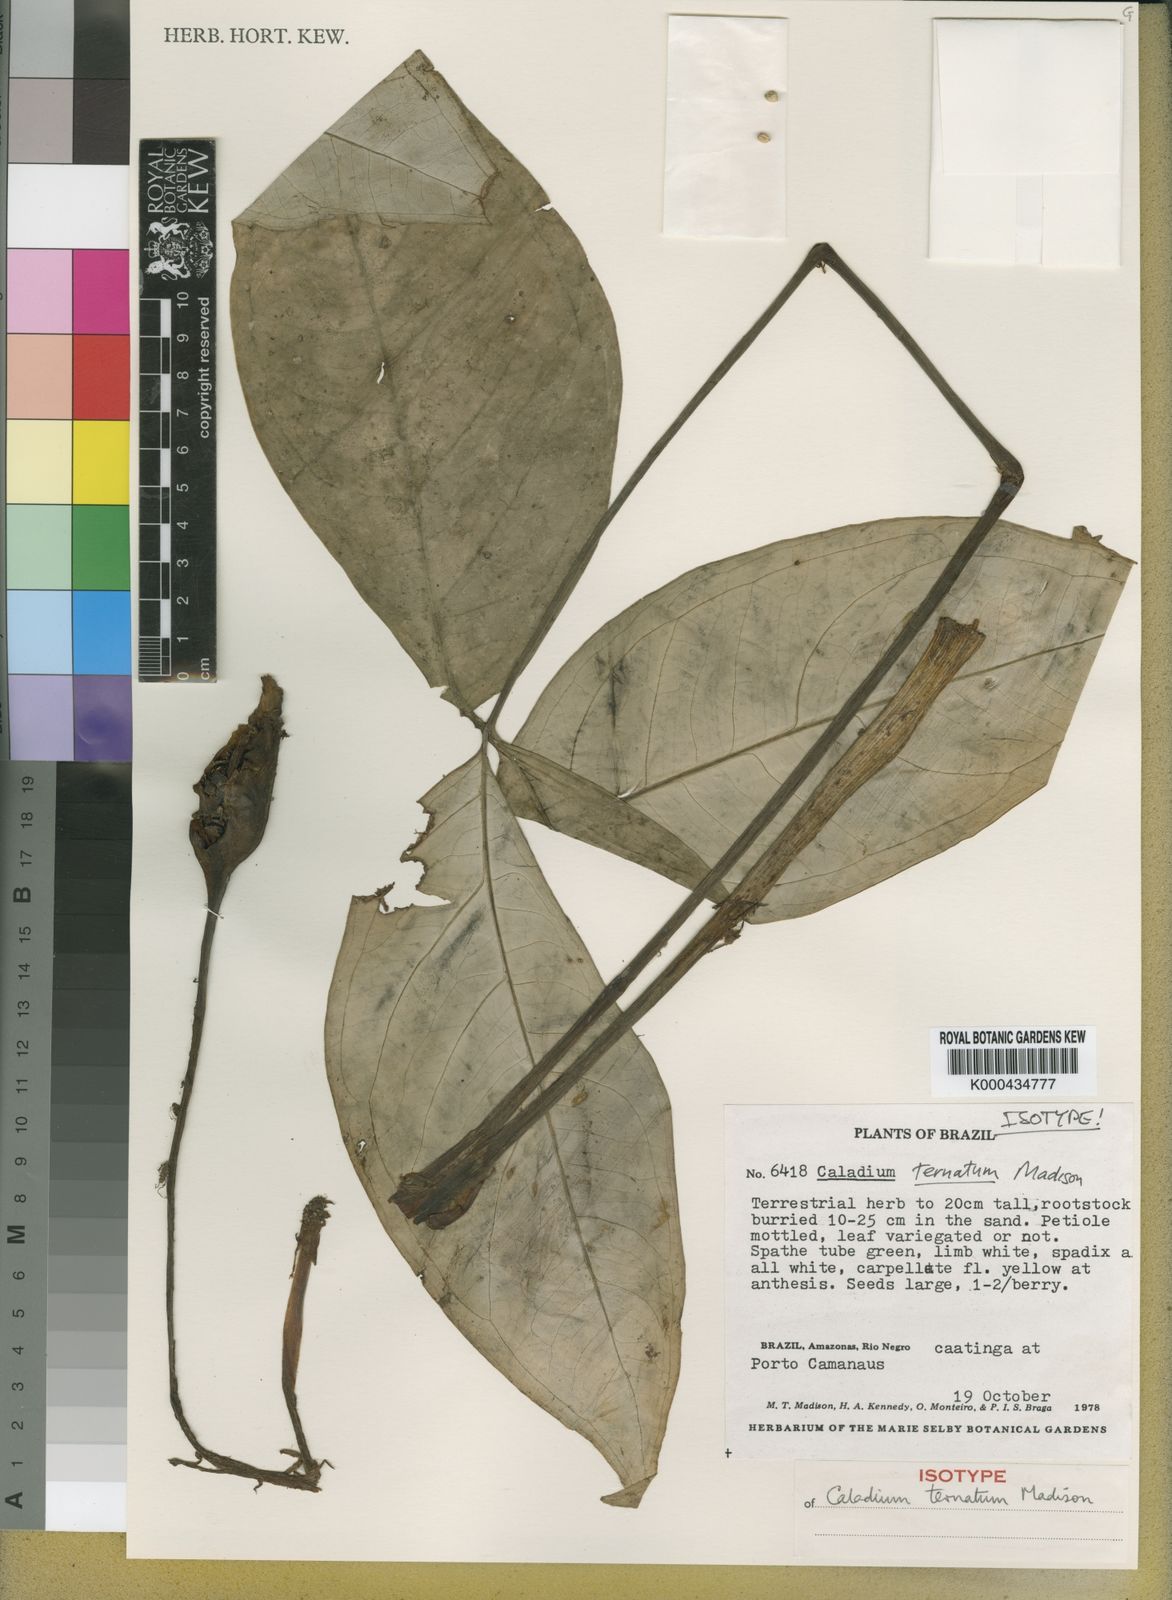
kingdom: Plantae
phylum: Tracheophyta
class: Liliopsida
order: Alismatales
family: Araceae
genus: Caladium
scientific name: Caladium ternatum
